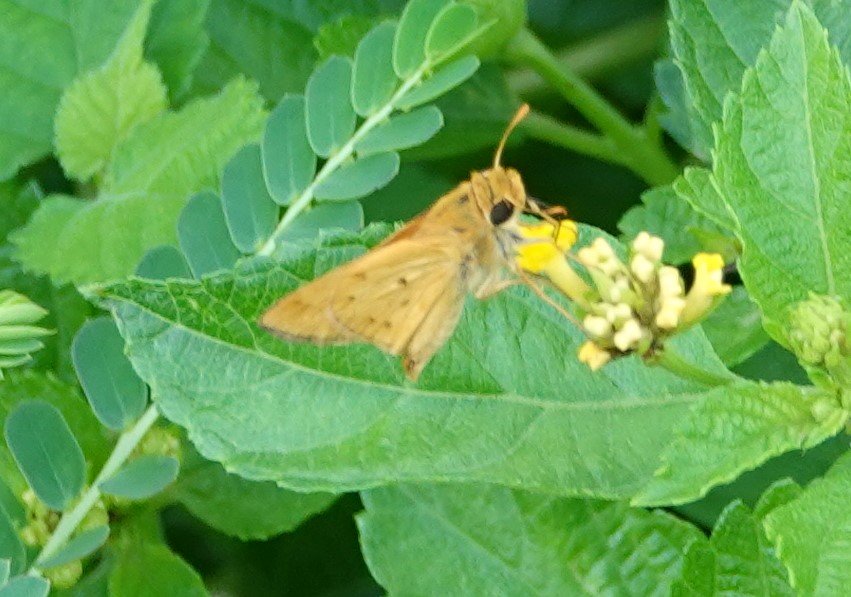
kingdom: Animalia
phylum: Arthropoda
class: Insecta
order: Lepidoptera
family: Hesperiidae
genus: Hylephila
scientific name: Hylephila phyleus
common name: Fiery Skipper
